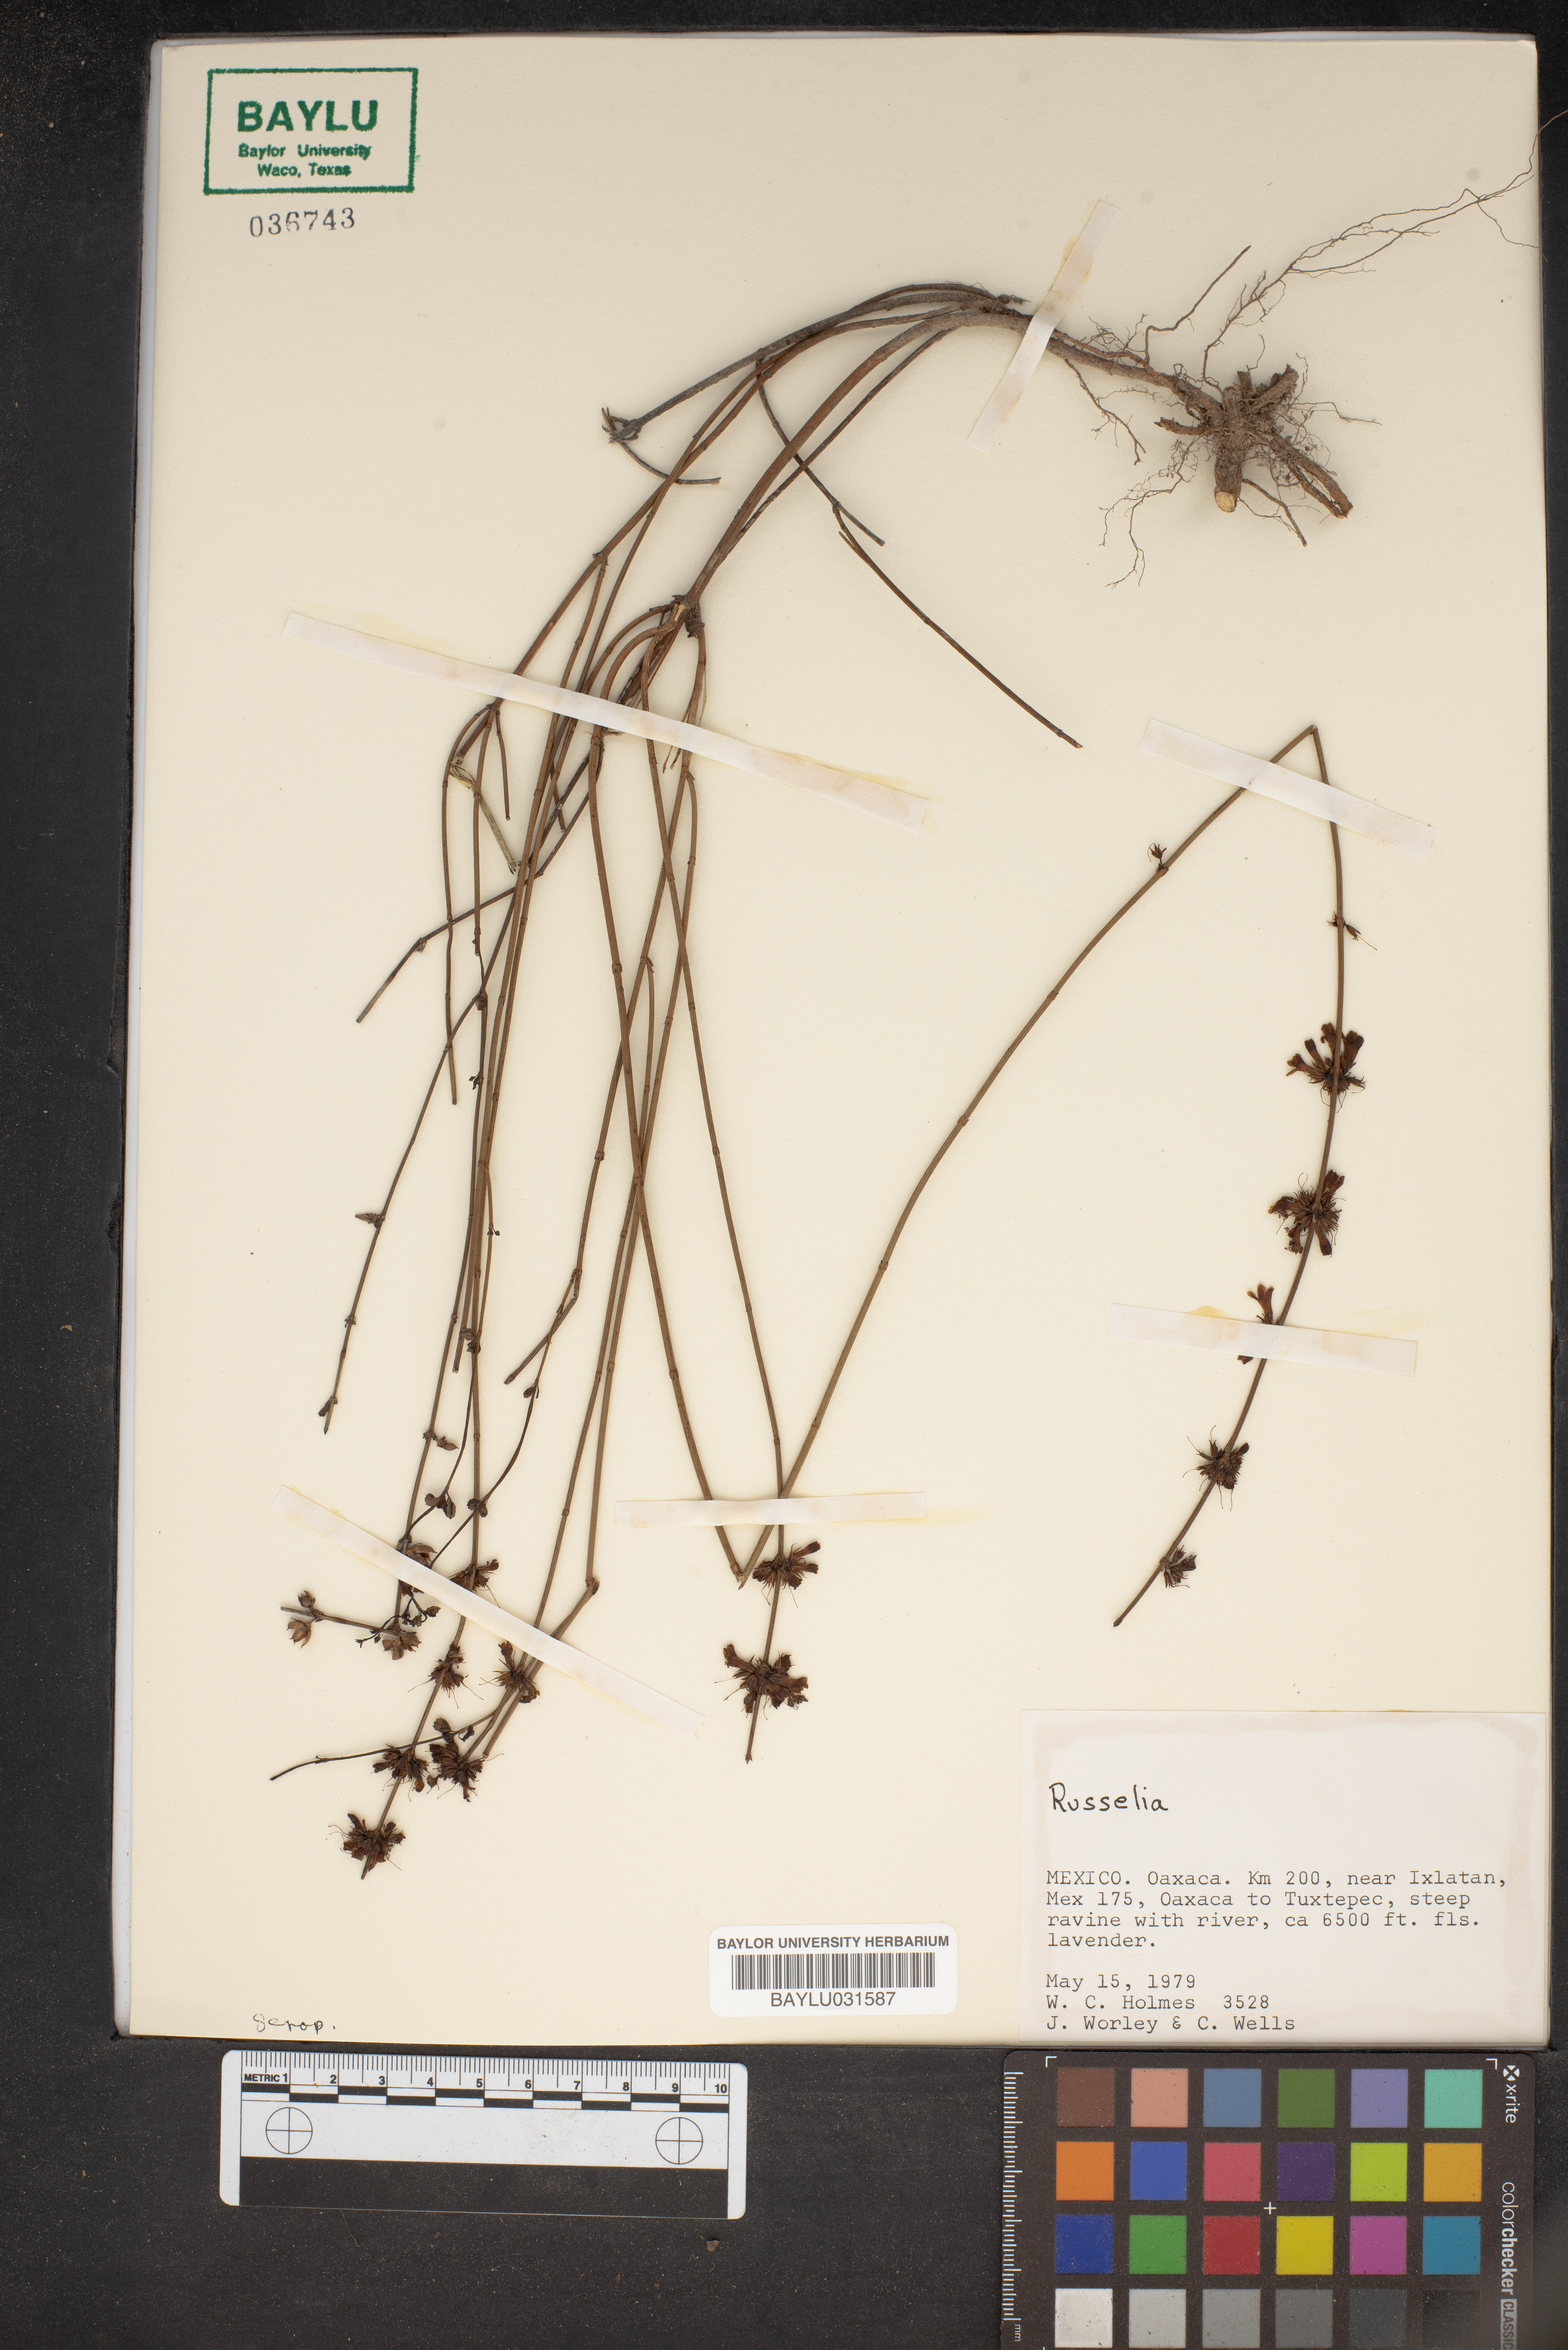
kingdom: Plantae
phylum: Tracheophyta
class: Magnoliopsida
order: Lamiales
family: Plantaginaceae
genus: Russelia
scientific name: Russelia
